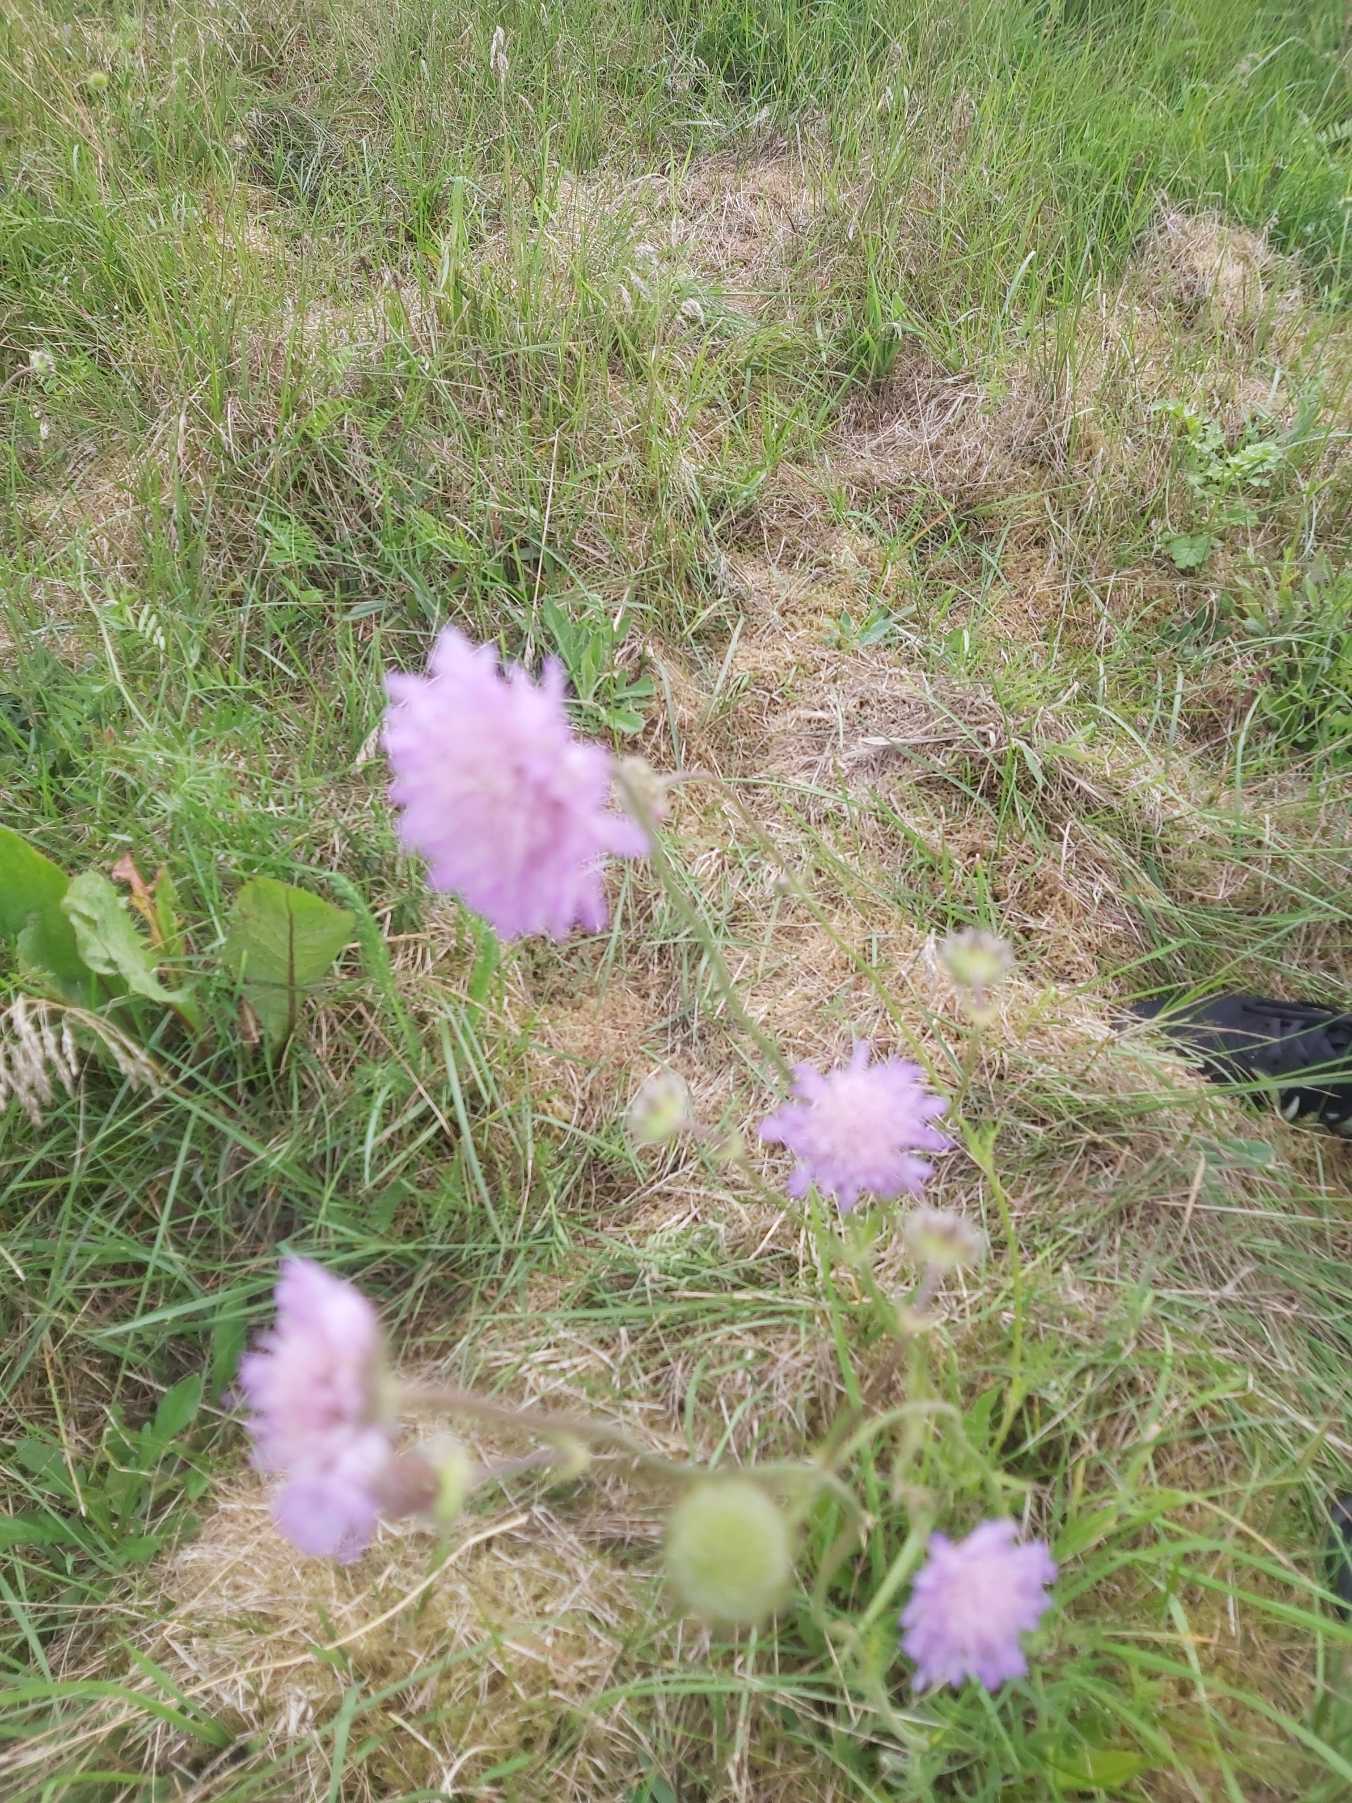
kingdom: Plantae
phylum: Tracheophyta
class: Magnoliopsida
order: Dipsacales
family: Caprifoliaceae
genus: Knautia
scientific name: Knautia arvensis
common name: Blåhat
